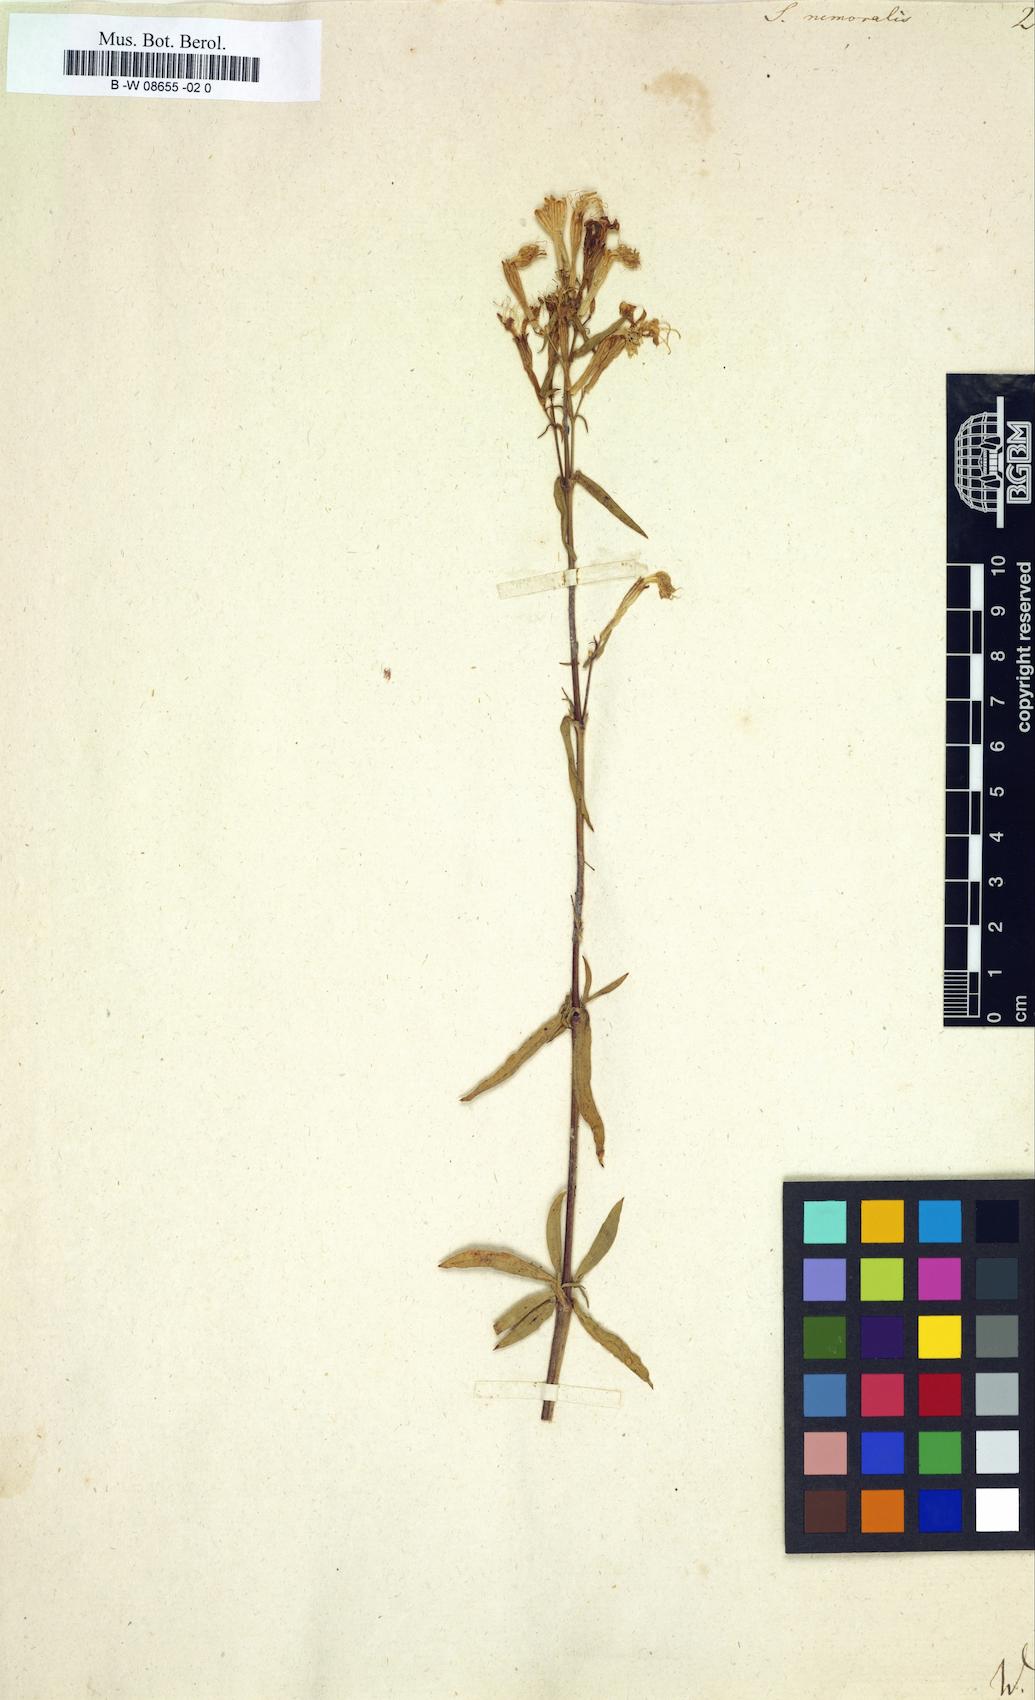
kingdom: Plantae
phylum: Tracheophyta
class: Magnoliopsida
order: Caryophyllales
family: Caryophyllaceae
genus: Silene
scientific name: Silene nemoralis
